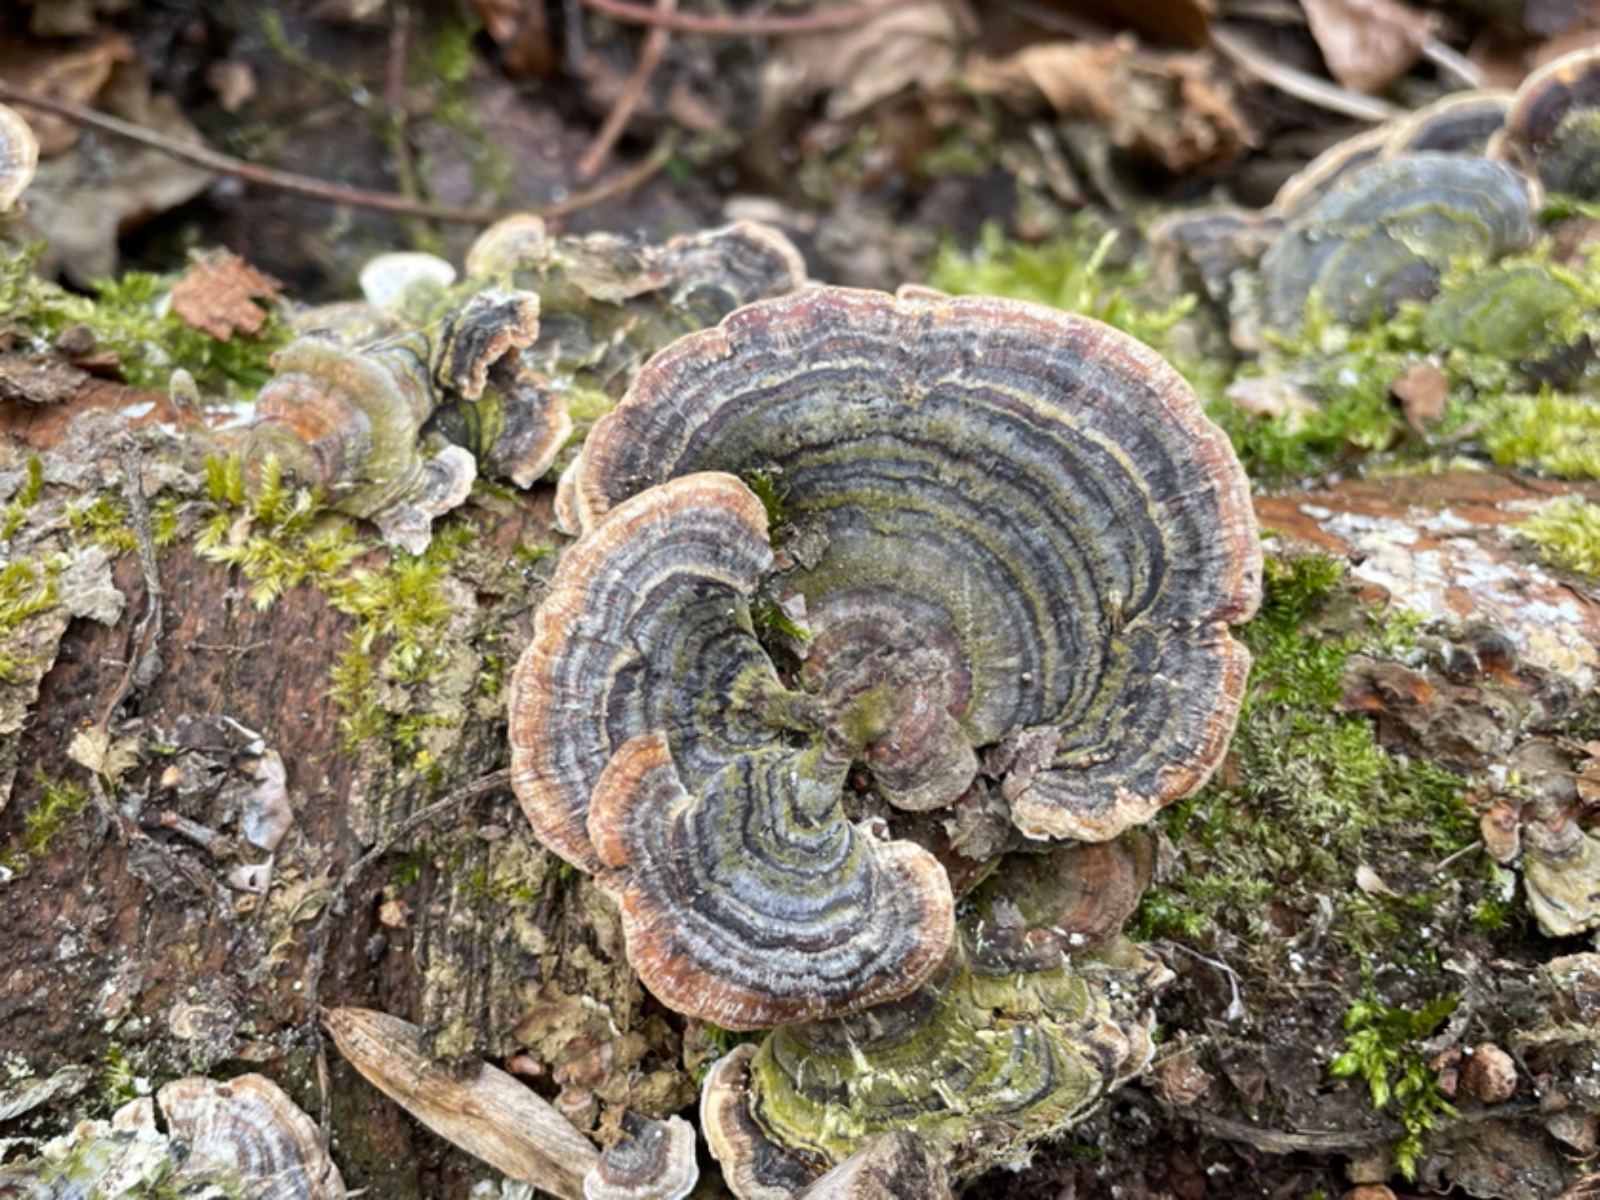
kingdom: Fungi
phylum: Basidiomycota
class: Agaricomycetes
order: Polyporales
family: Polyporaceae
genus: Trametes
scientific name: Trametes versicolor
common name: broget læderporesvamp
